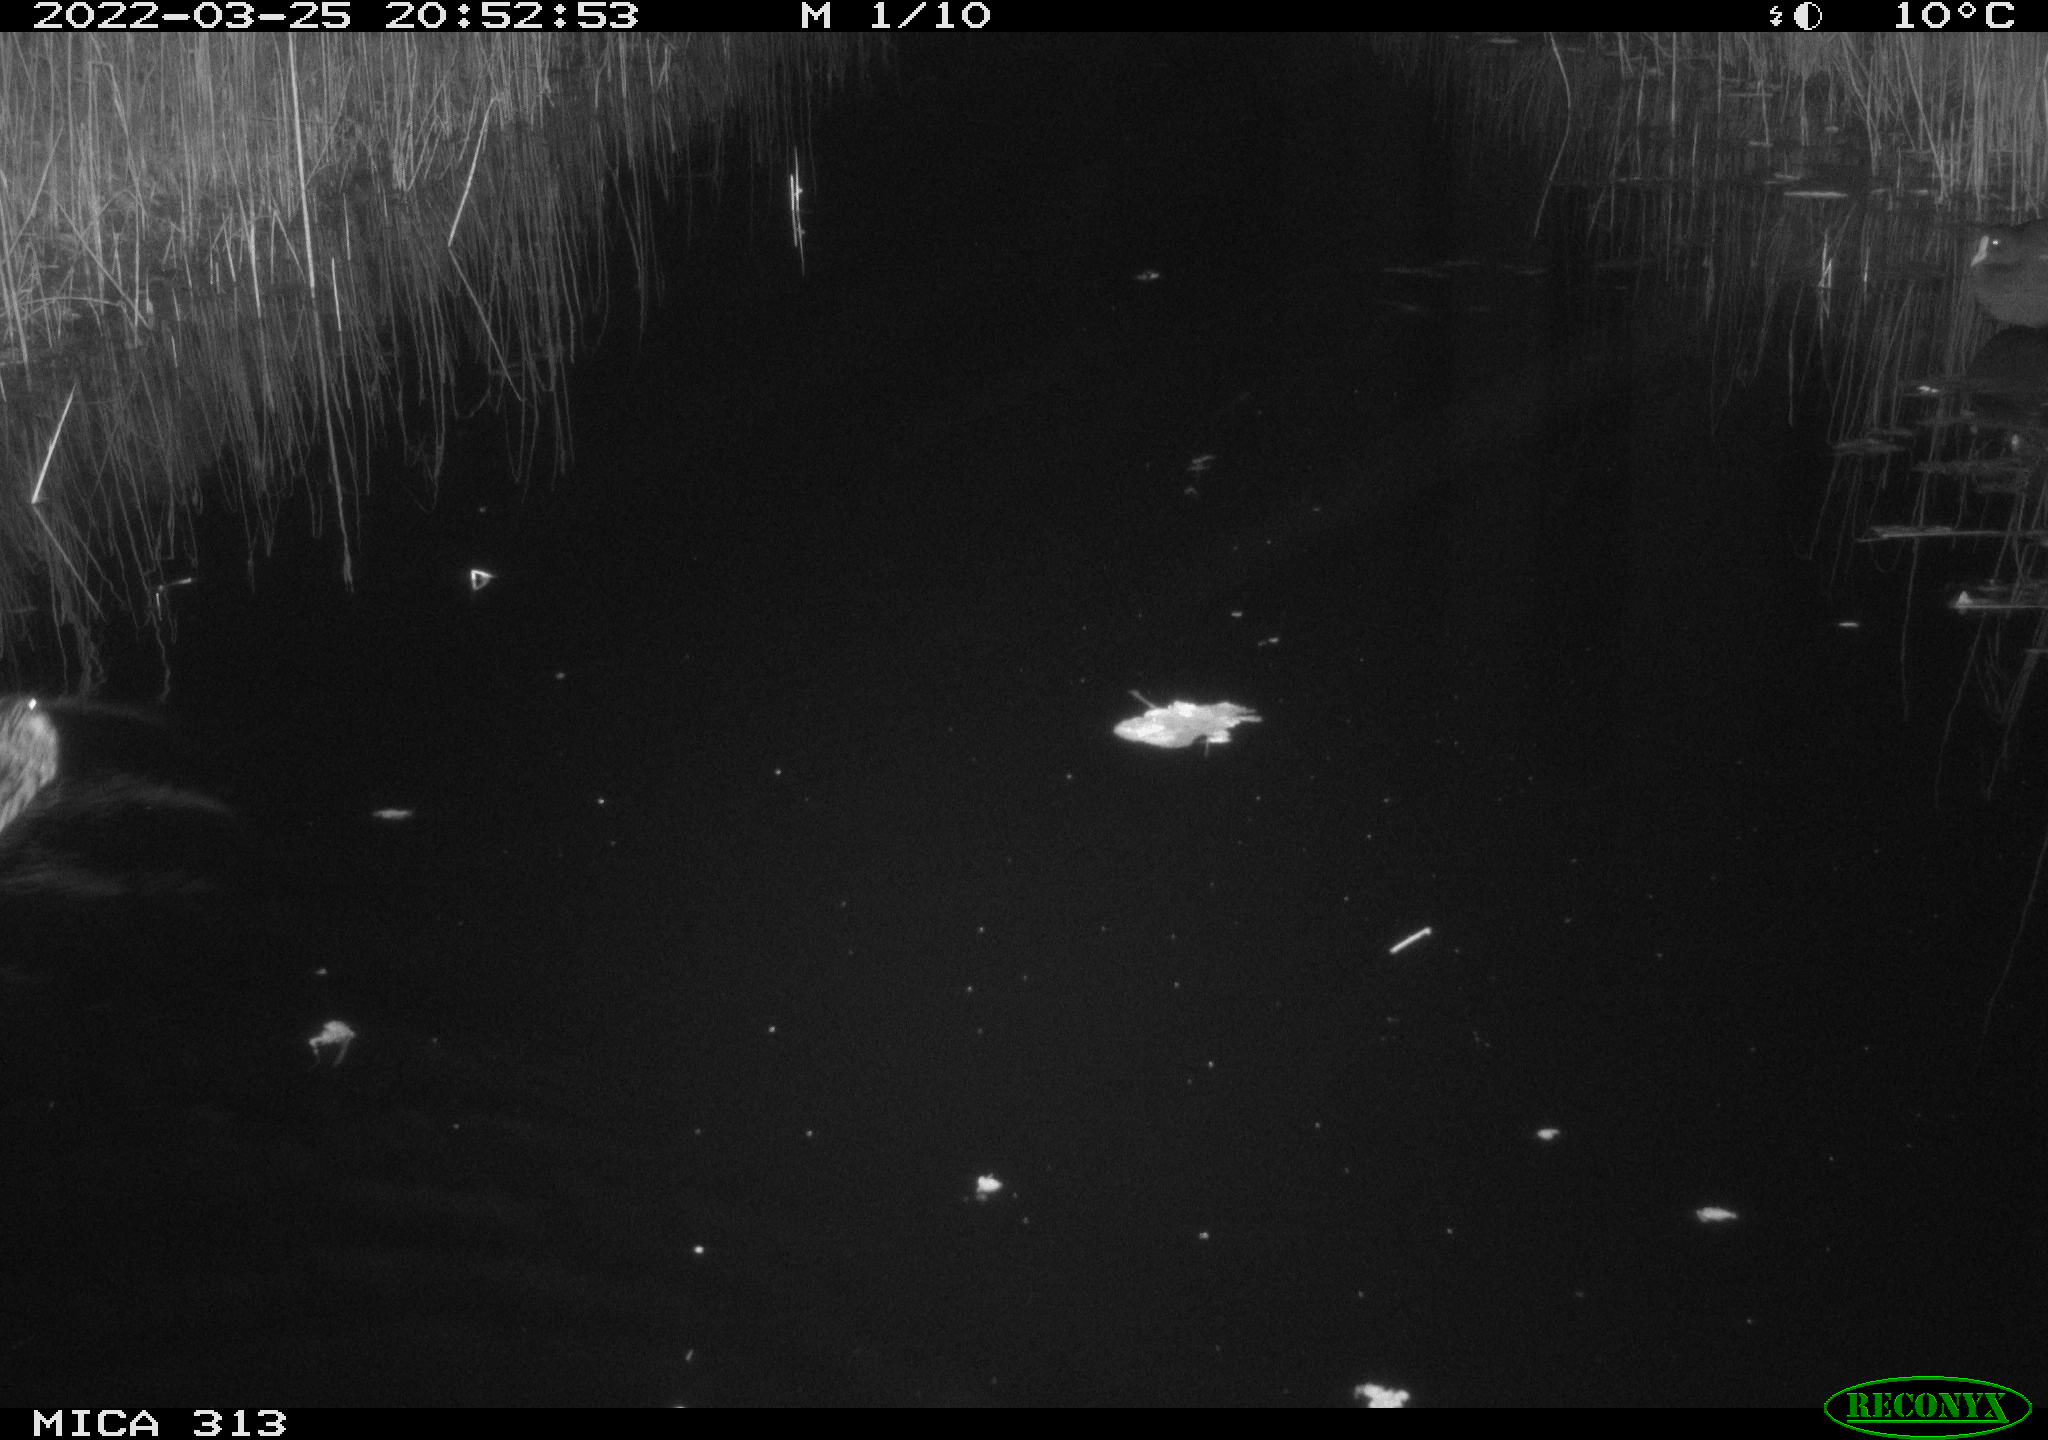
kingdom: Animalia
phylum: Chordata
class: Mammalia
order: Rodentia
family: Cricetidae
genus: Ondatra
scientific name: Ondatra zibethicus
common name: Muskrat
